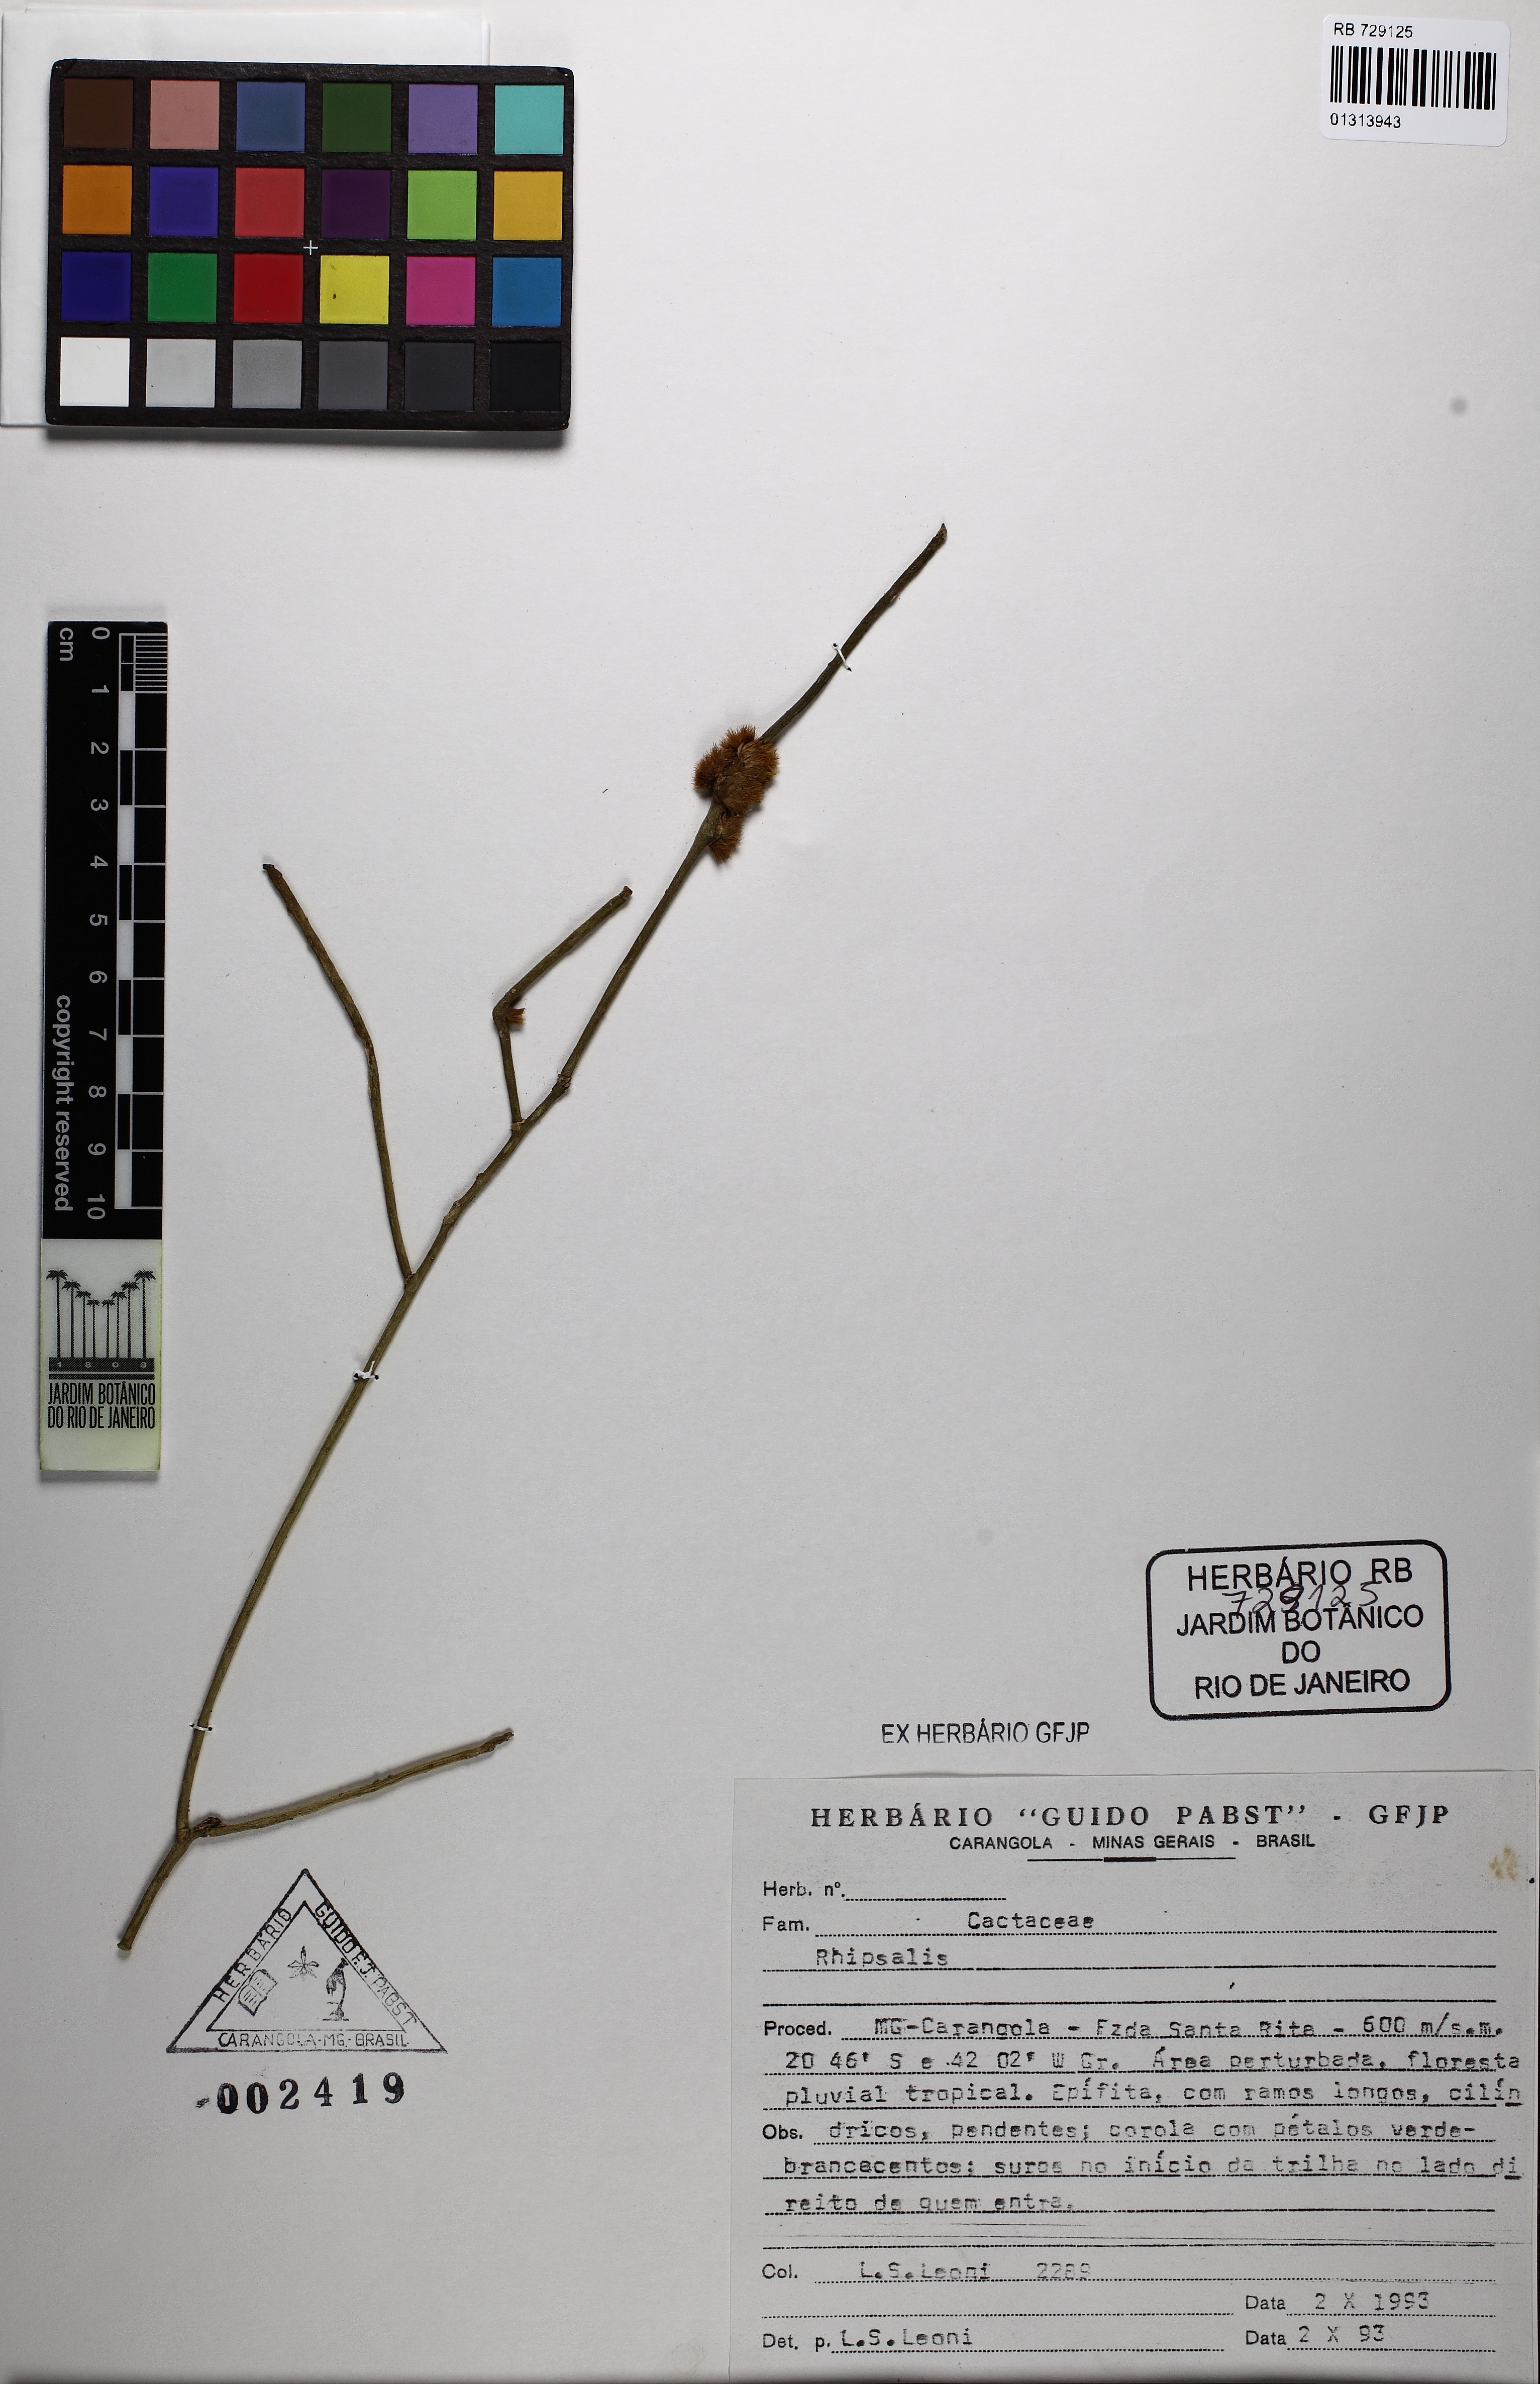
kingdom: Plantae
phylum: Tracheophyta
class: Magnoliopsida
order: Caryophyllales
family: Cactaceae
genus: Rhipsalis
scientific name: Rhipsalis teres
